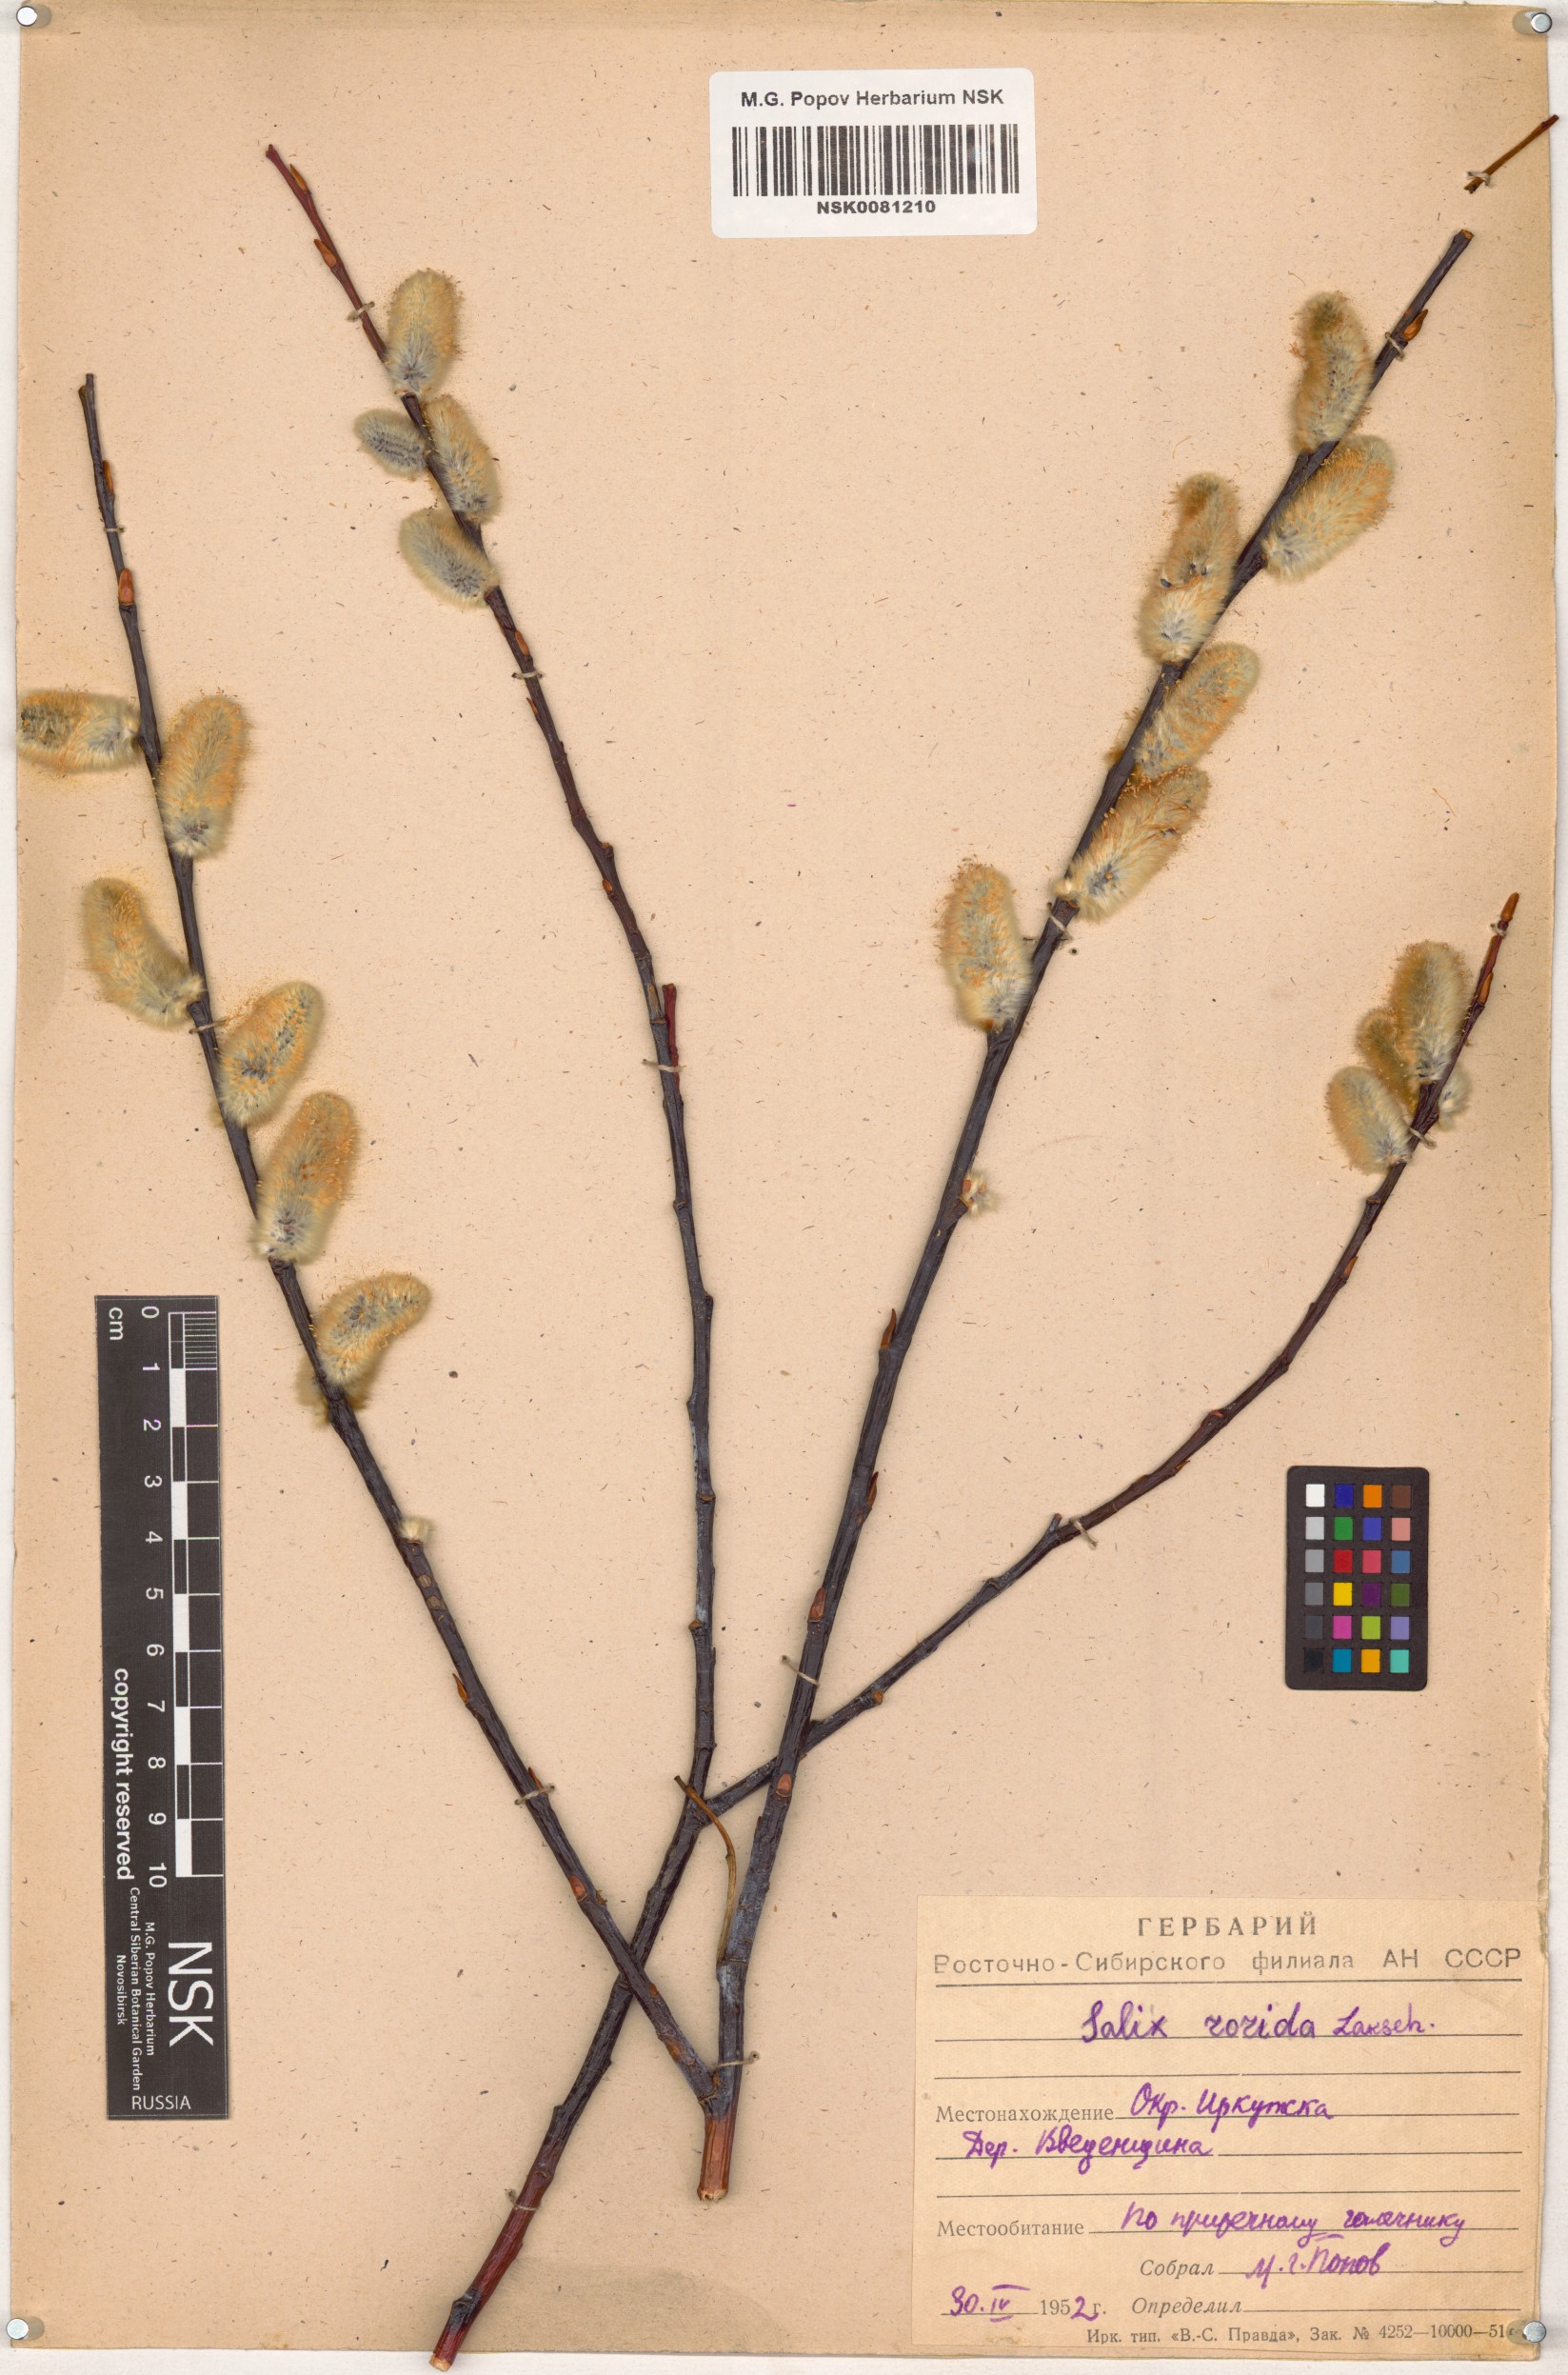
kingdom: Plantae
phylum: Tracheophyta
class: Magnoliopsida
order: Malpighiales
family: Salicaceae
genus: Salix
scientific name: Salix rorida
